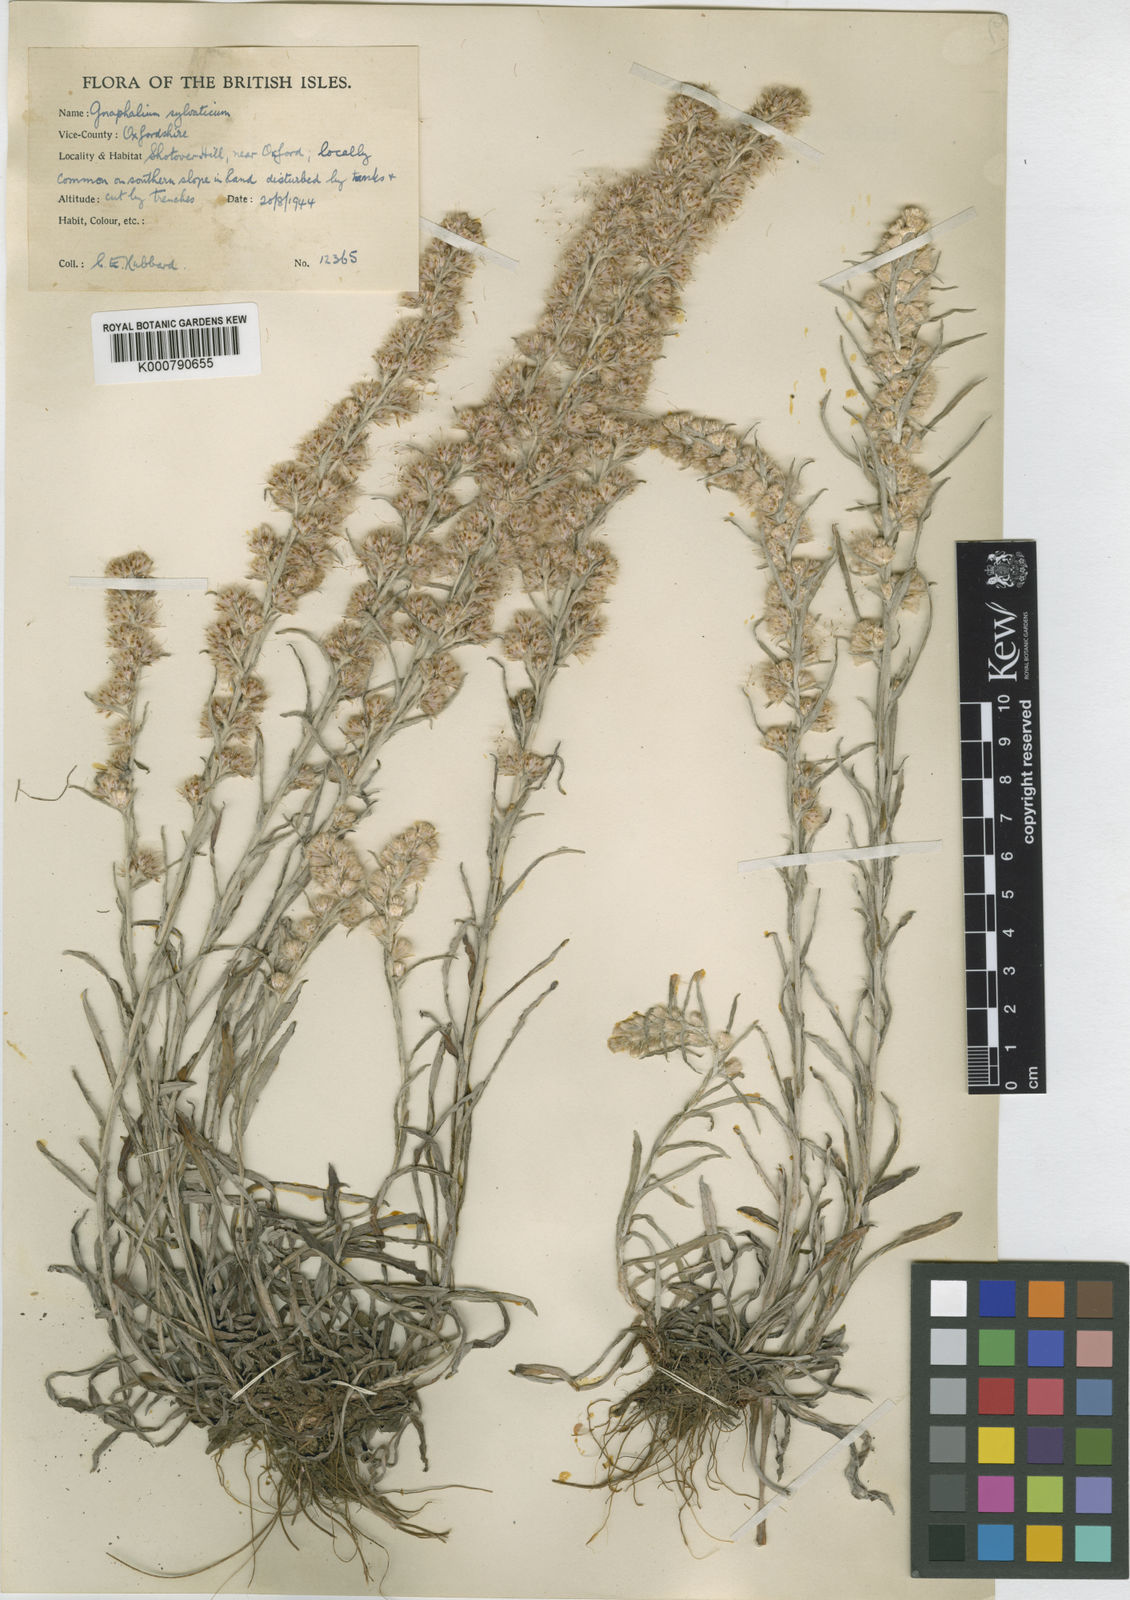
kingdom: Plantae
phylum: Tracheophyta
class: Magnoliopsida
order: Asterales
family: Asteraceae
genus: Omalotheca
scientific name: Omalotheca sylvatica
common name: Heath cudweed
